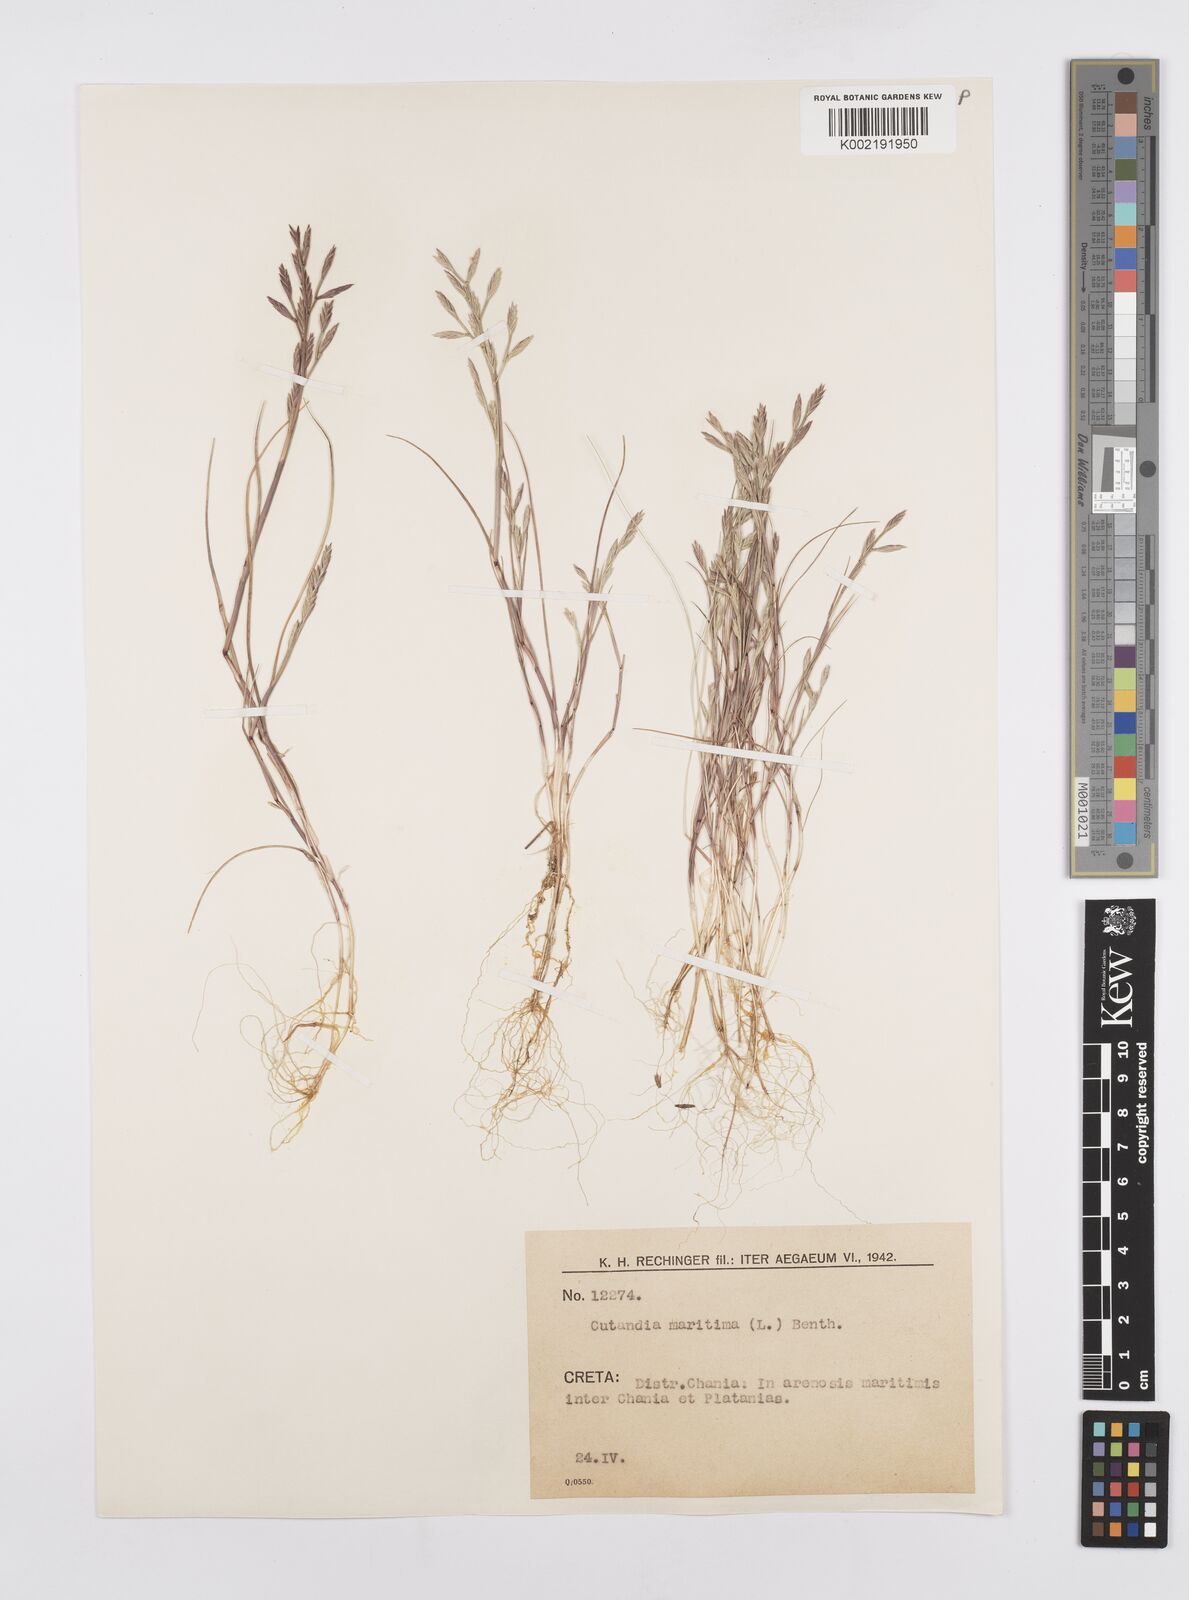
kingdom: Plantae
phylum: Tracheophyta
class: Liliopsida
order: Poales
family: Poaceae
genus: Cutandia
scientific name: Cutandia maritima
